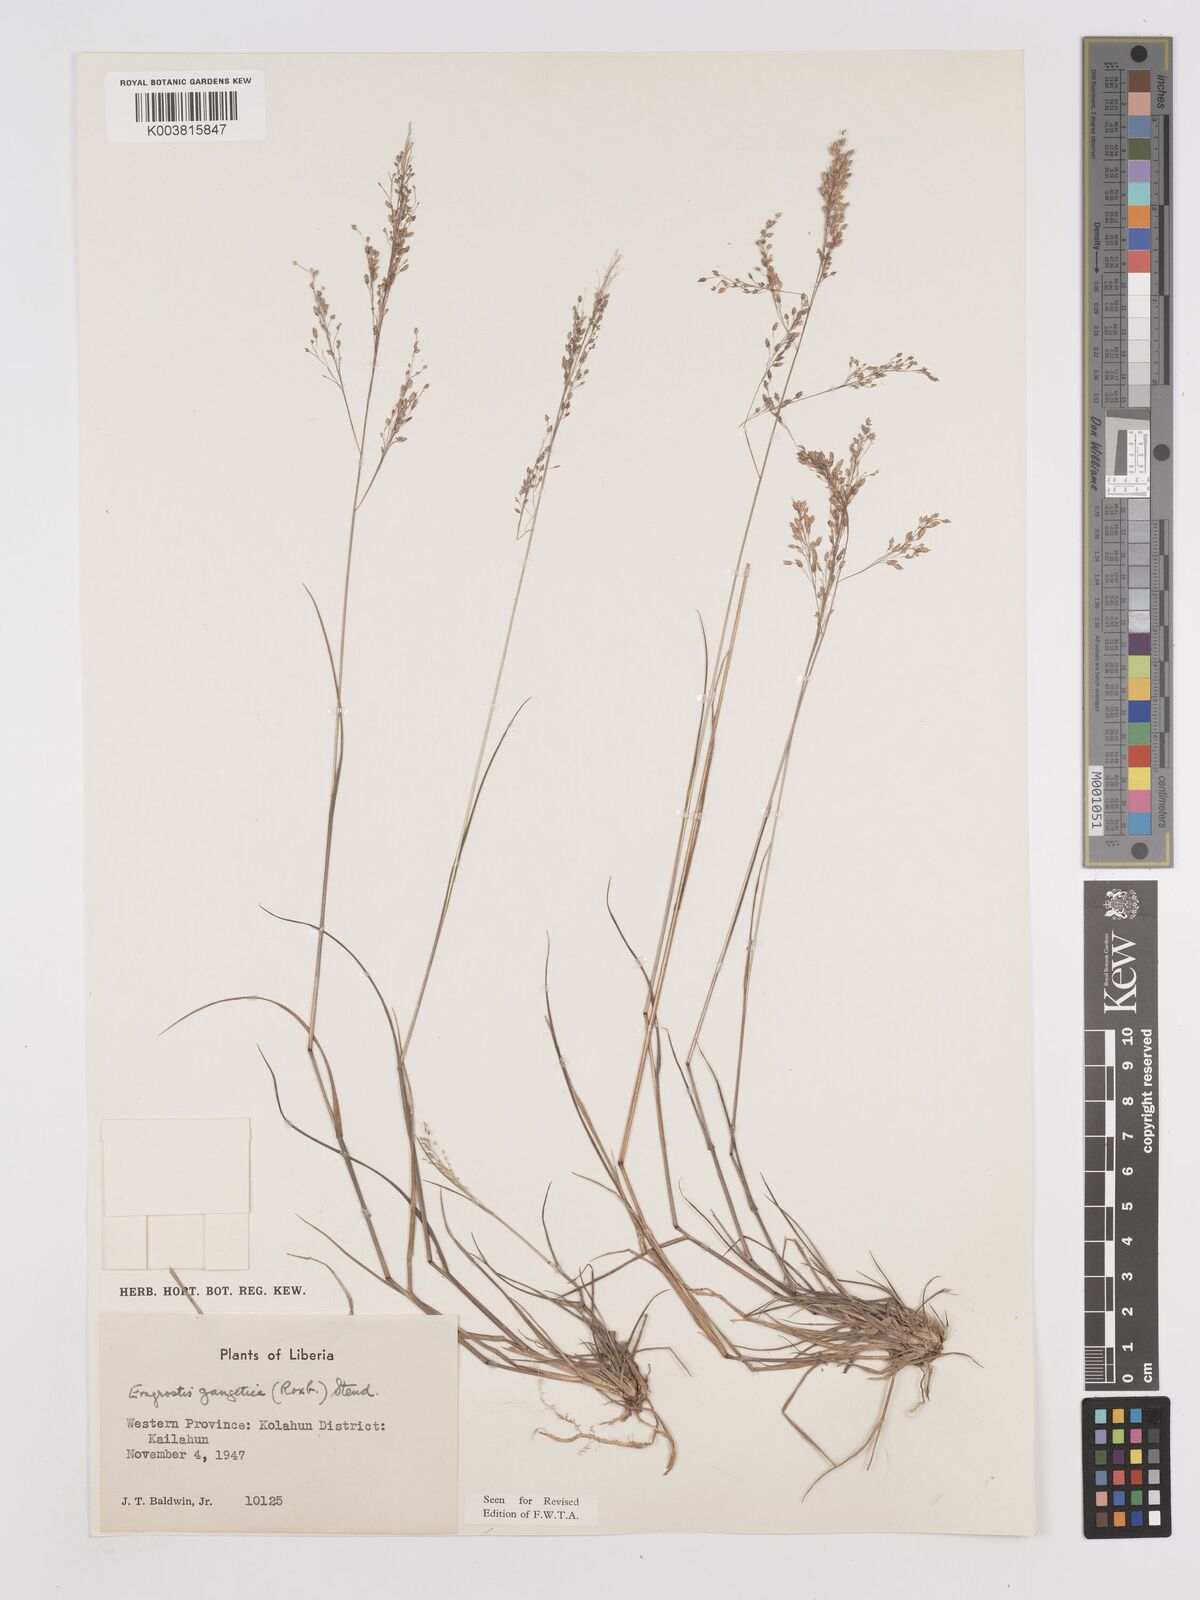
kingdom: Plantae
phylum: Tracheophyta
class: Liliopsida
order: Poales
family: Poaceae
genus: Eragrostis
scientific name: Eragrostis gangetica
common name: Slimflower lovegrass
